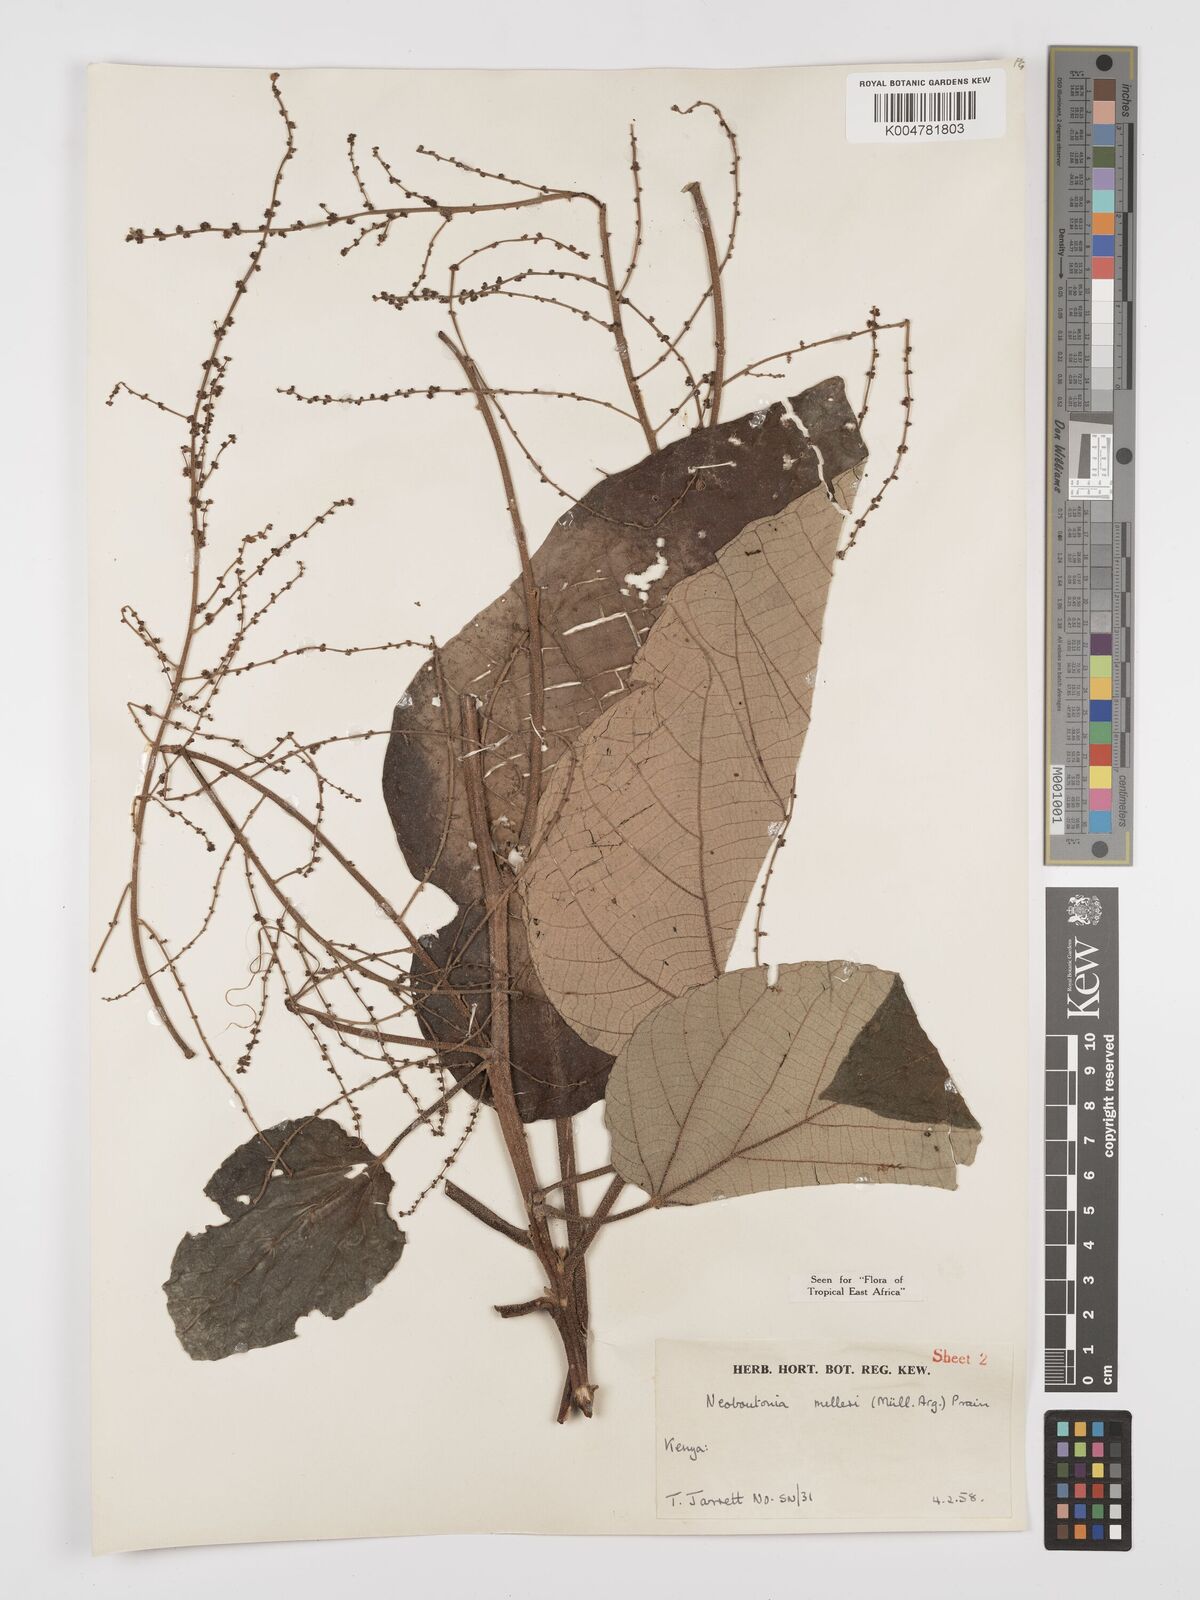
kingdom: Plantae
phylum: Tracheophyta
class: Magnoliopsida
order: Malpighiales
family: Euphorbiaceae
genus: Neoboutonia
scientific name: Neoboutonia melleri
